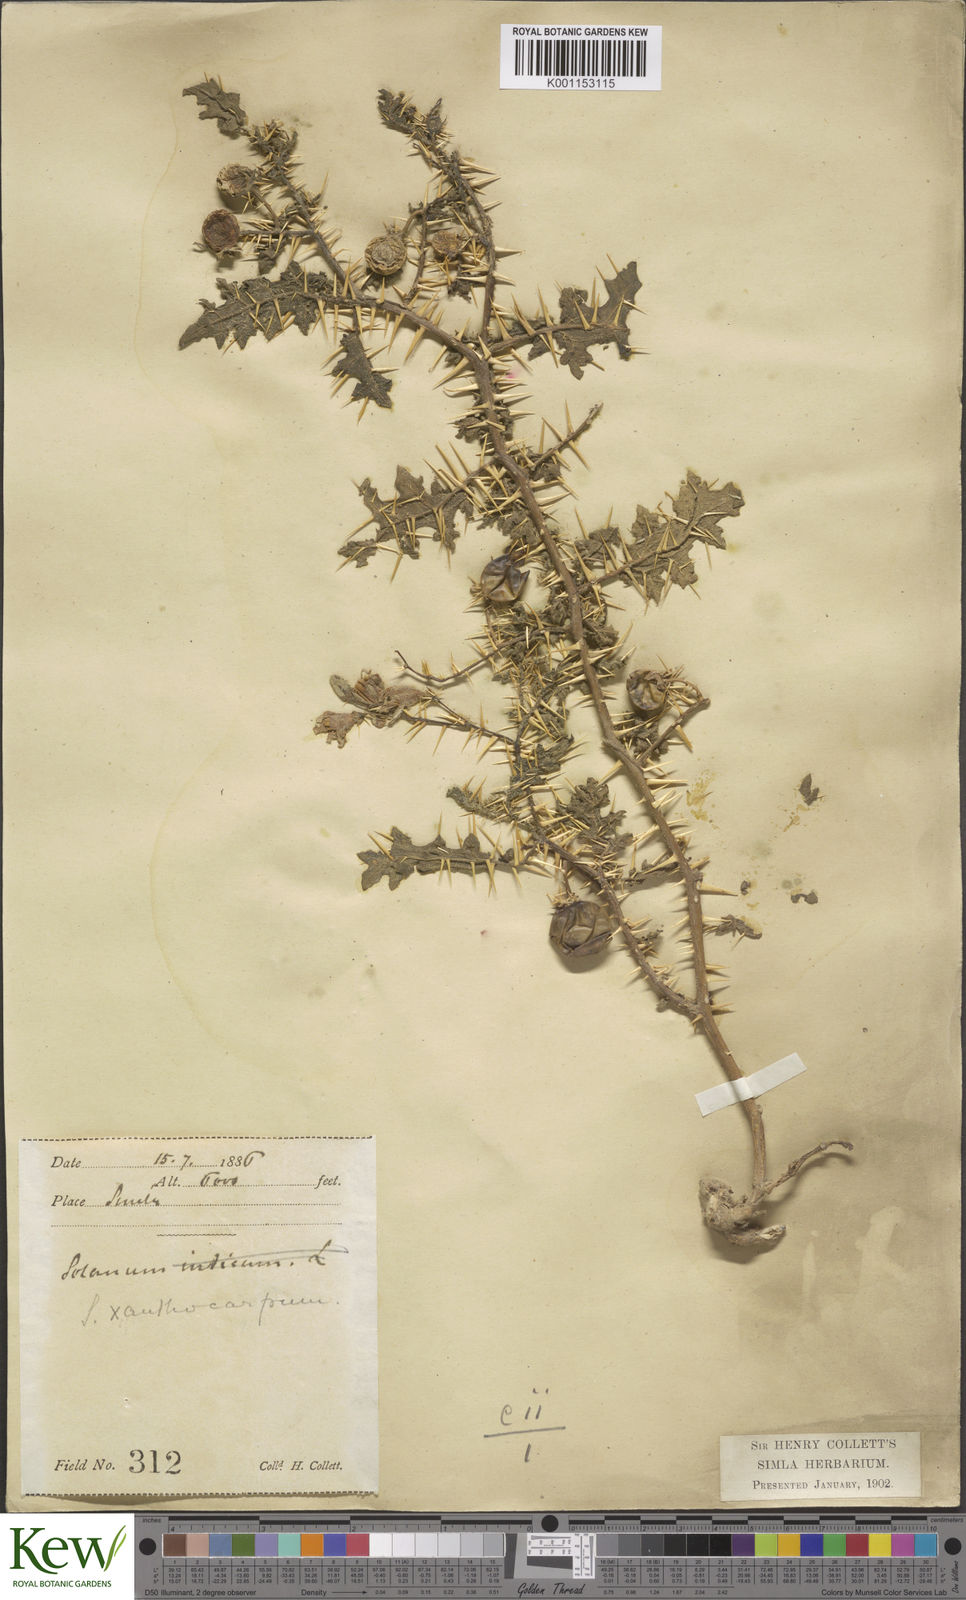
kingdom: Plantae
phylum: Tracheophyta
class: Magnoliopsida
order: Solanales
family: Solanaceae
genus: Solanum
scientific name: Solanum virginianum
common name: Surattense nightshade
